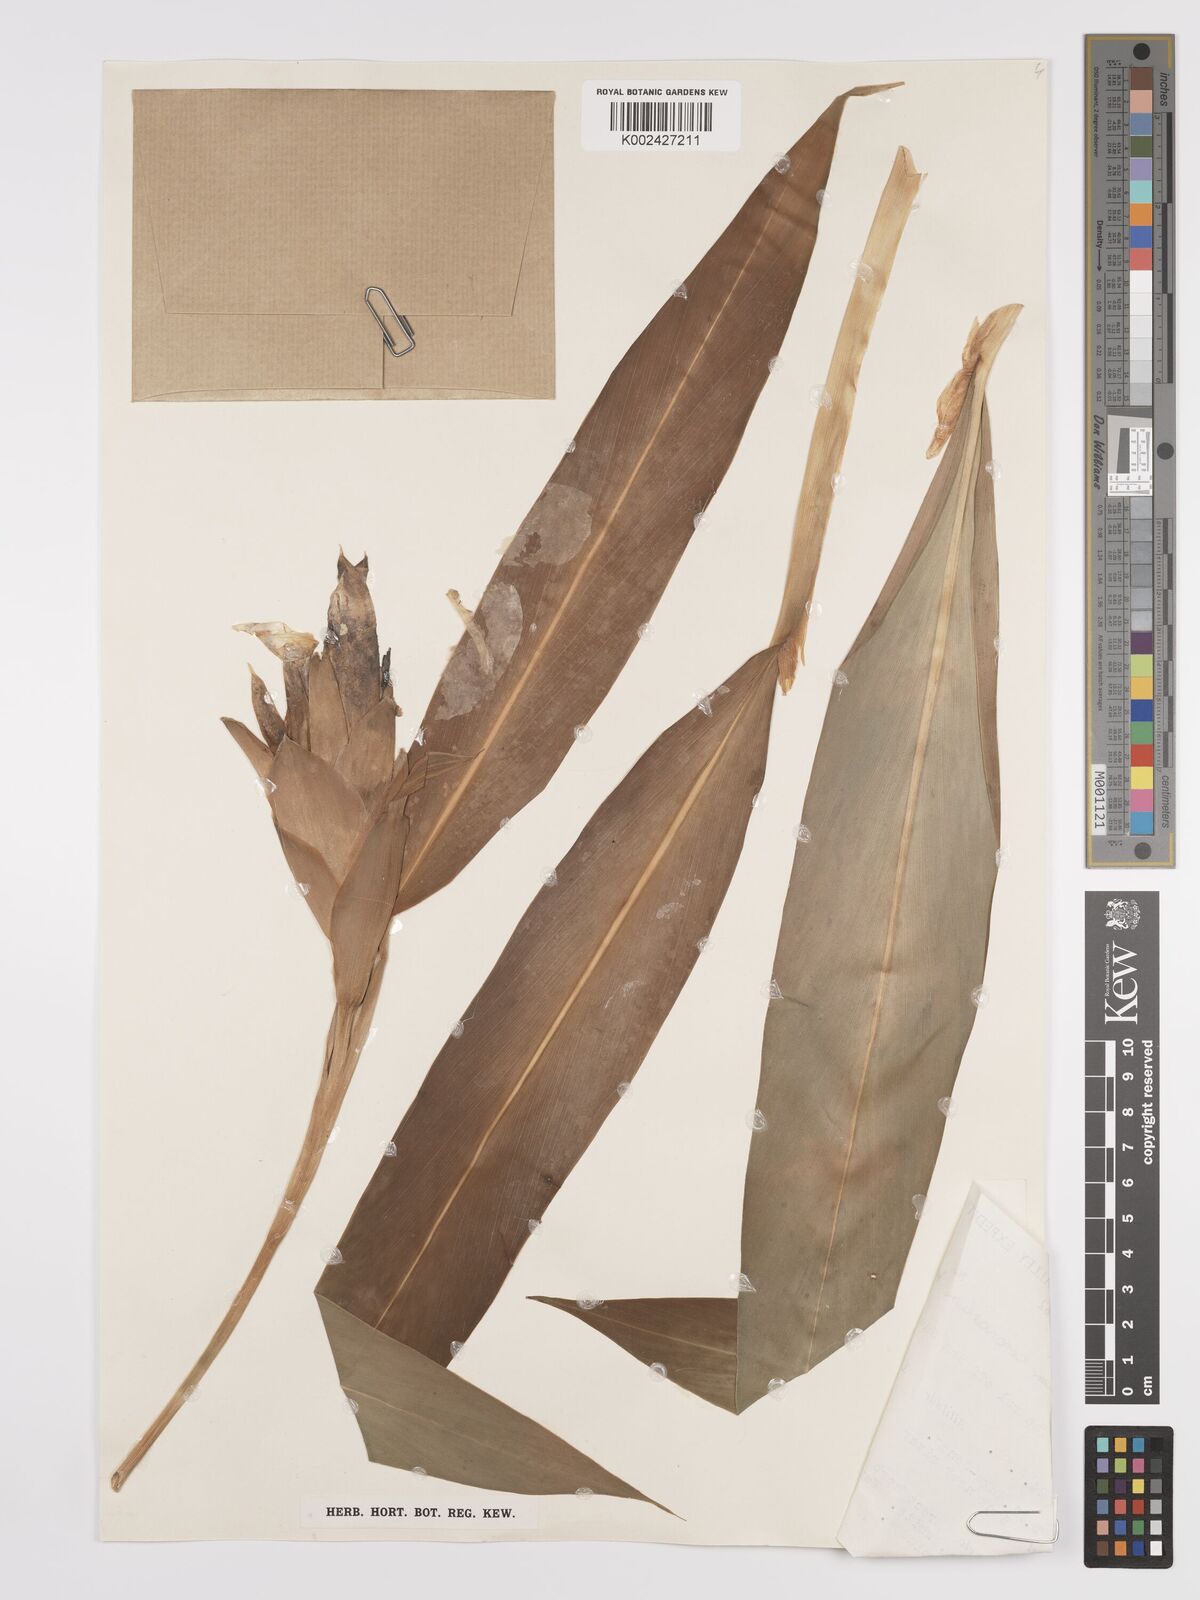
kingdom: Plantae
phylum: Tracheophyta
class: Liliopsida
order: Zingiberales
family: Zingiberaceae
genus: Hedychium
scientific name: Hedychium coronarium
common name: White garland-lily
